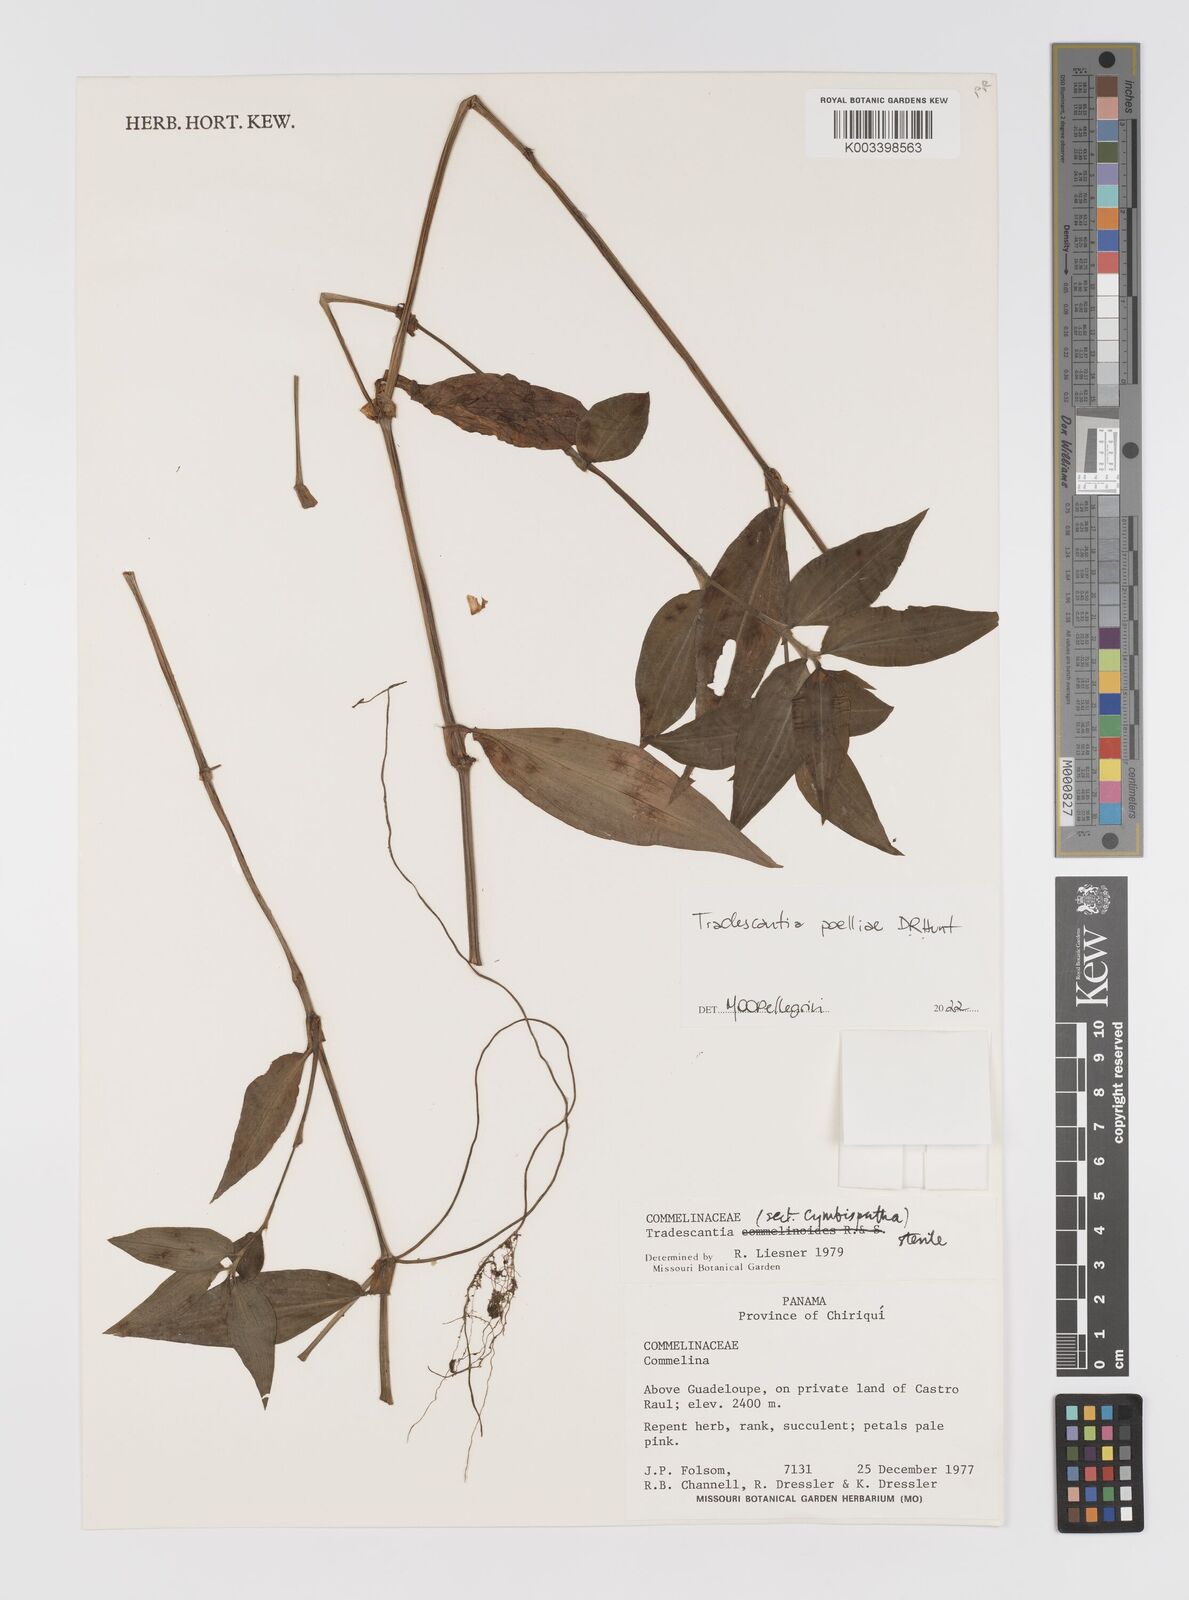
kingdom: Plantae
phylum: Tracheophyta
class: Liliopsida
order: Commelinales
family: Commelinaceae
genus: Tradescantia
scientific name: Tradescantia poelliae
